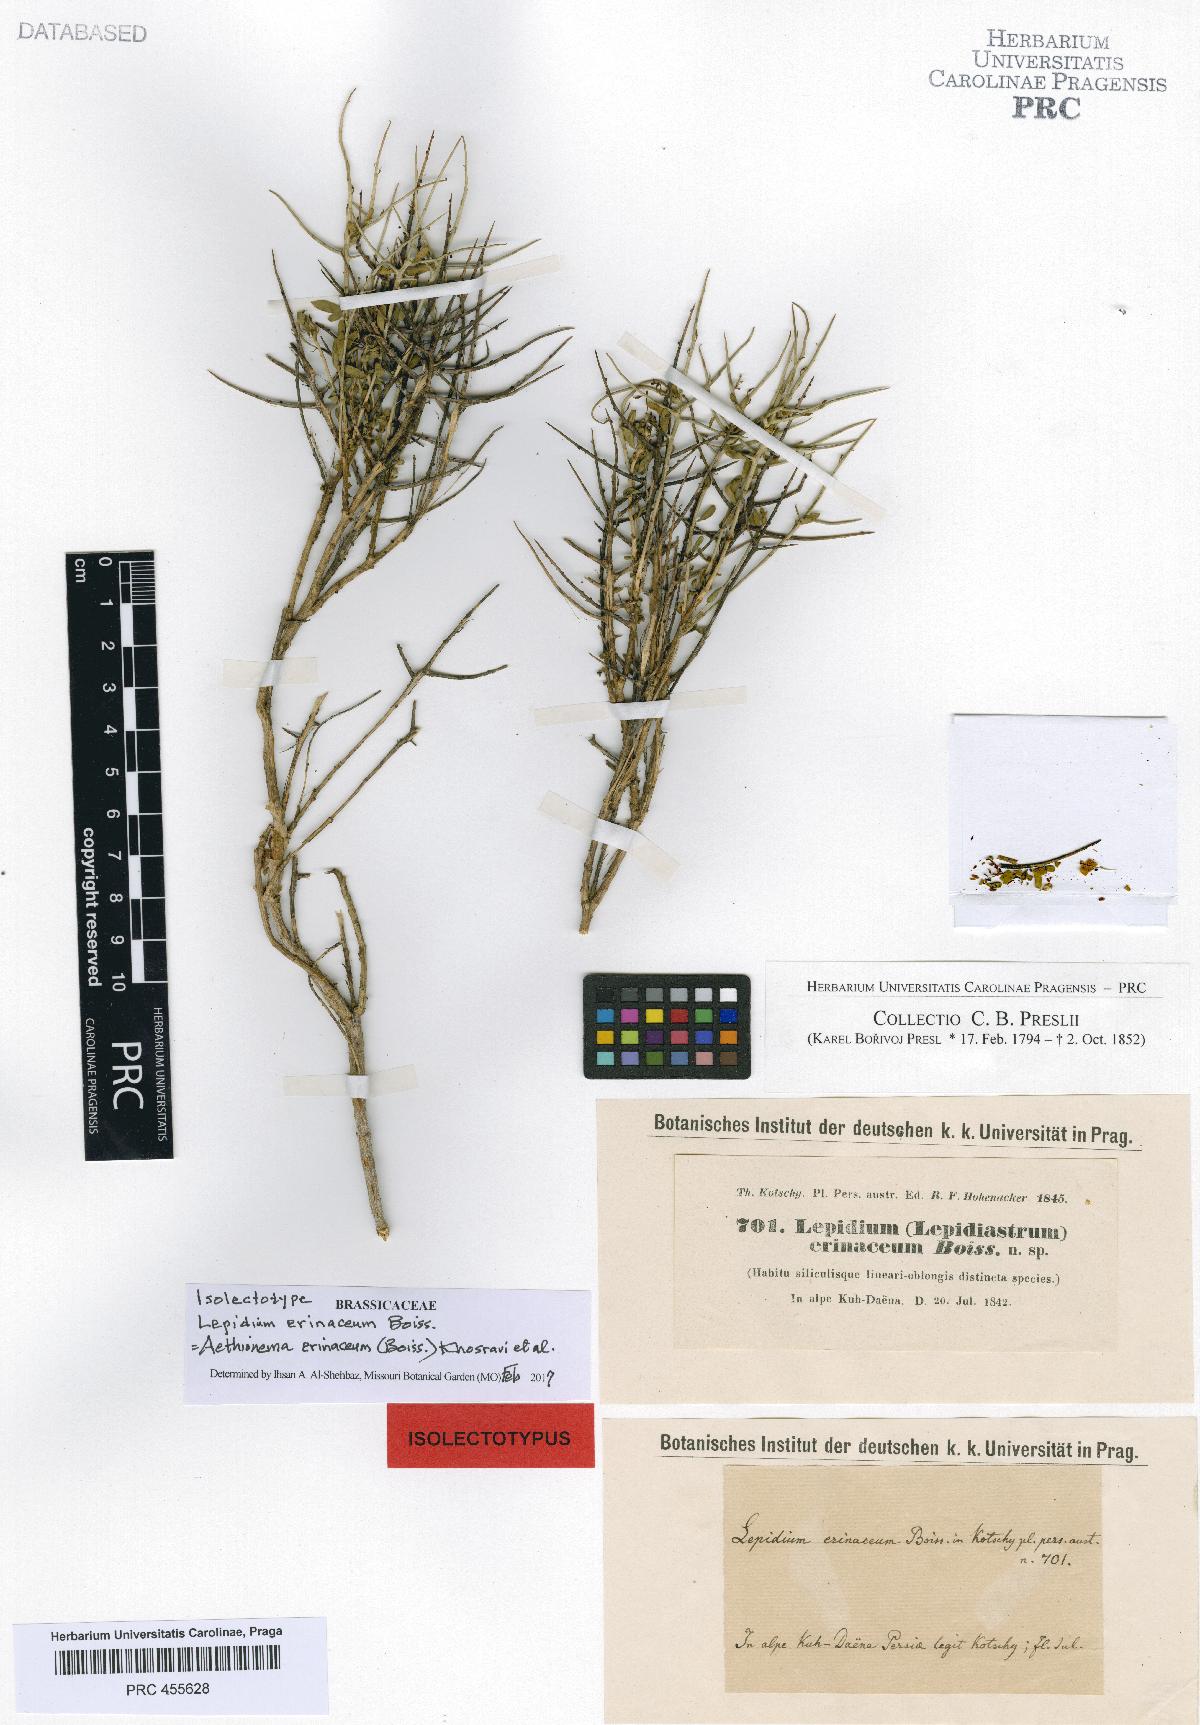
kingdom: Plantae
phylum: Tracheophyta
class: Magnoliopsida
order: Brassicales
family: Brassicaceae
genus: Aethionema
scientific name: Aethionema erinaceum
